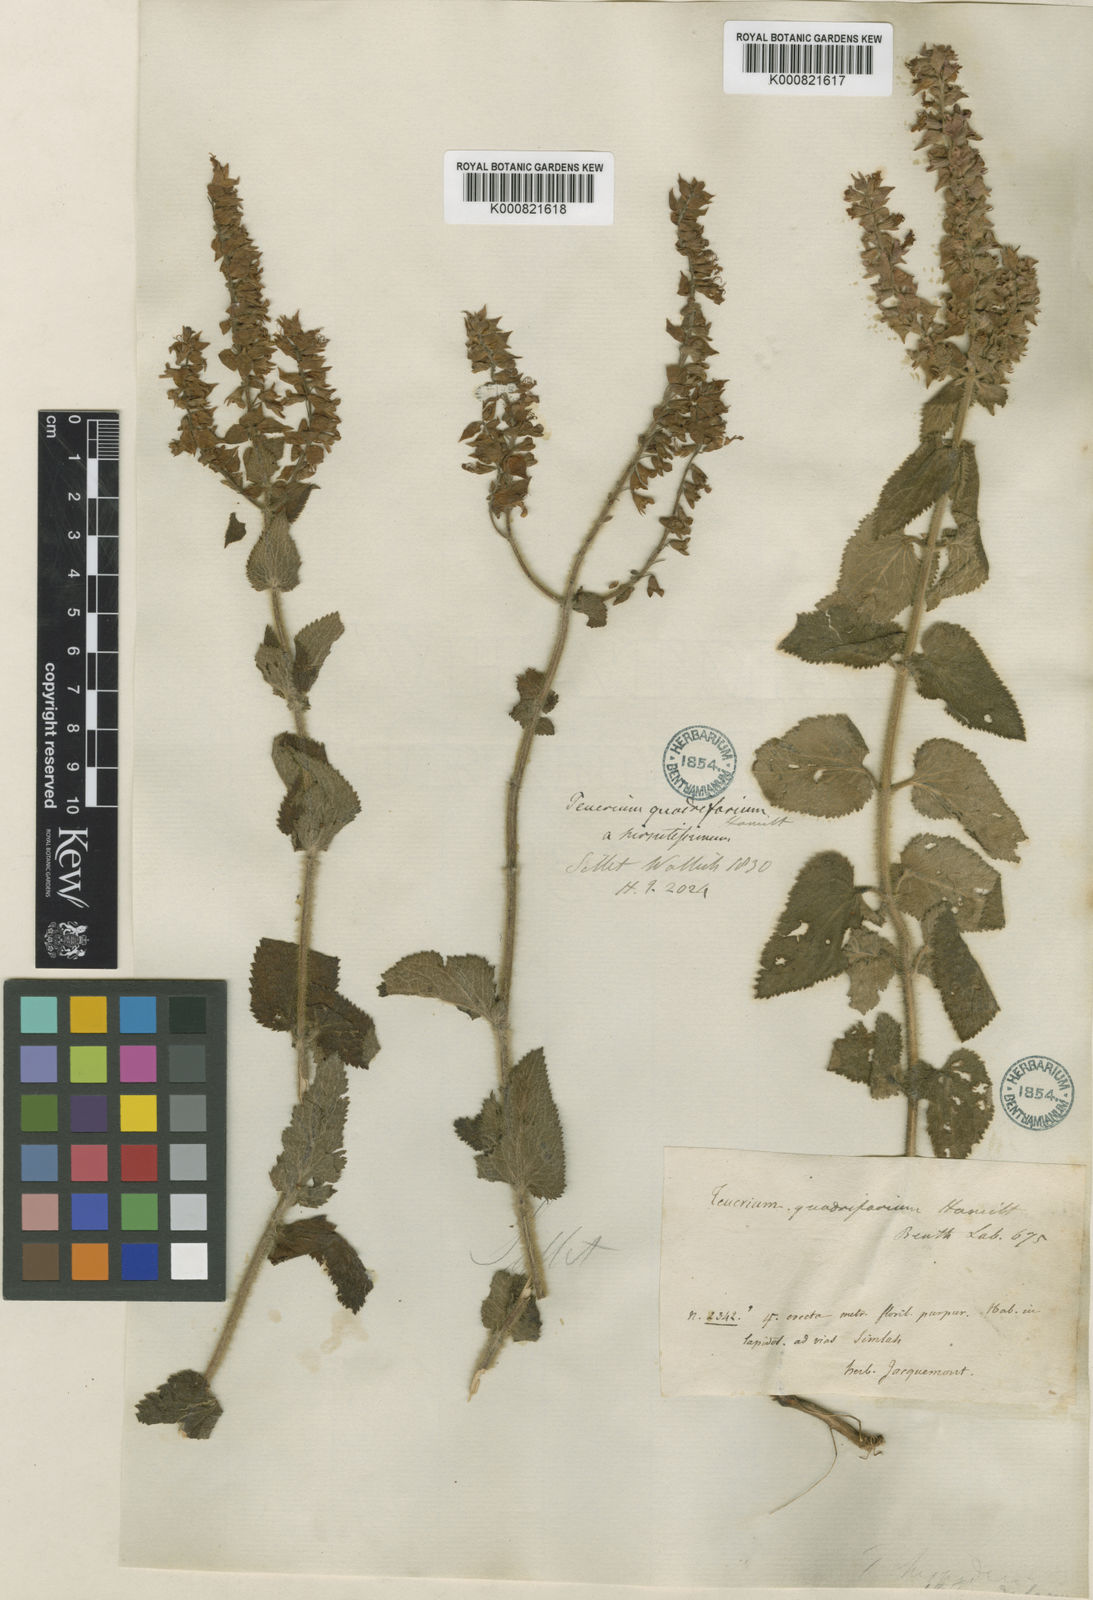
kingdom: Plantae
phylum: Tracheophyta
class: Magnoliopsida
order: Lamiales
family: Lamiaceae
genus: Teucrium
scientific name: Teucrium
